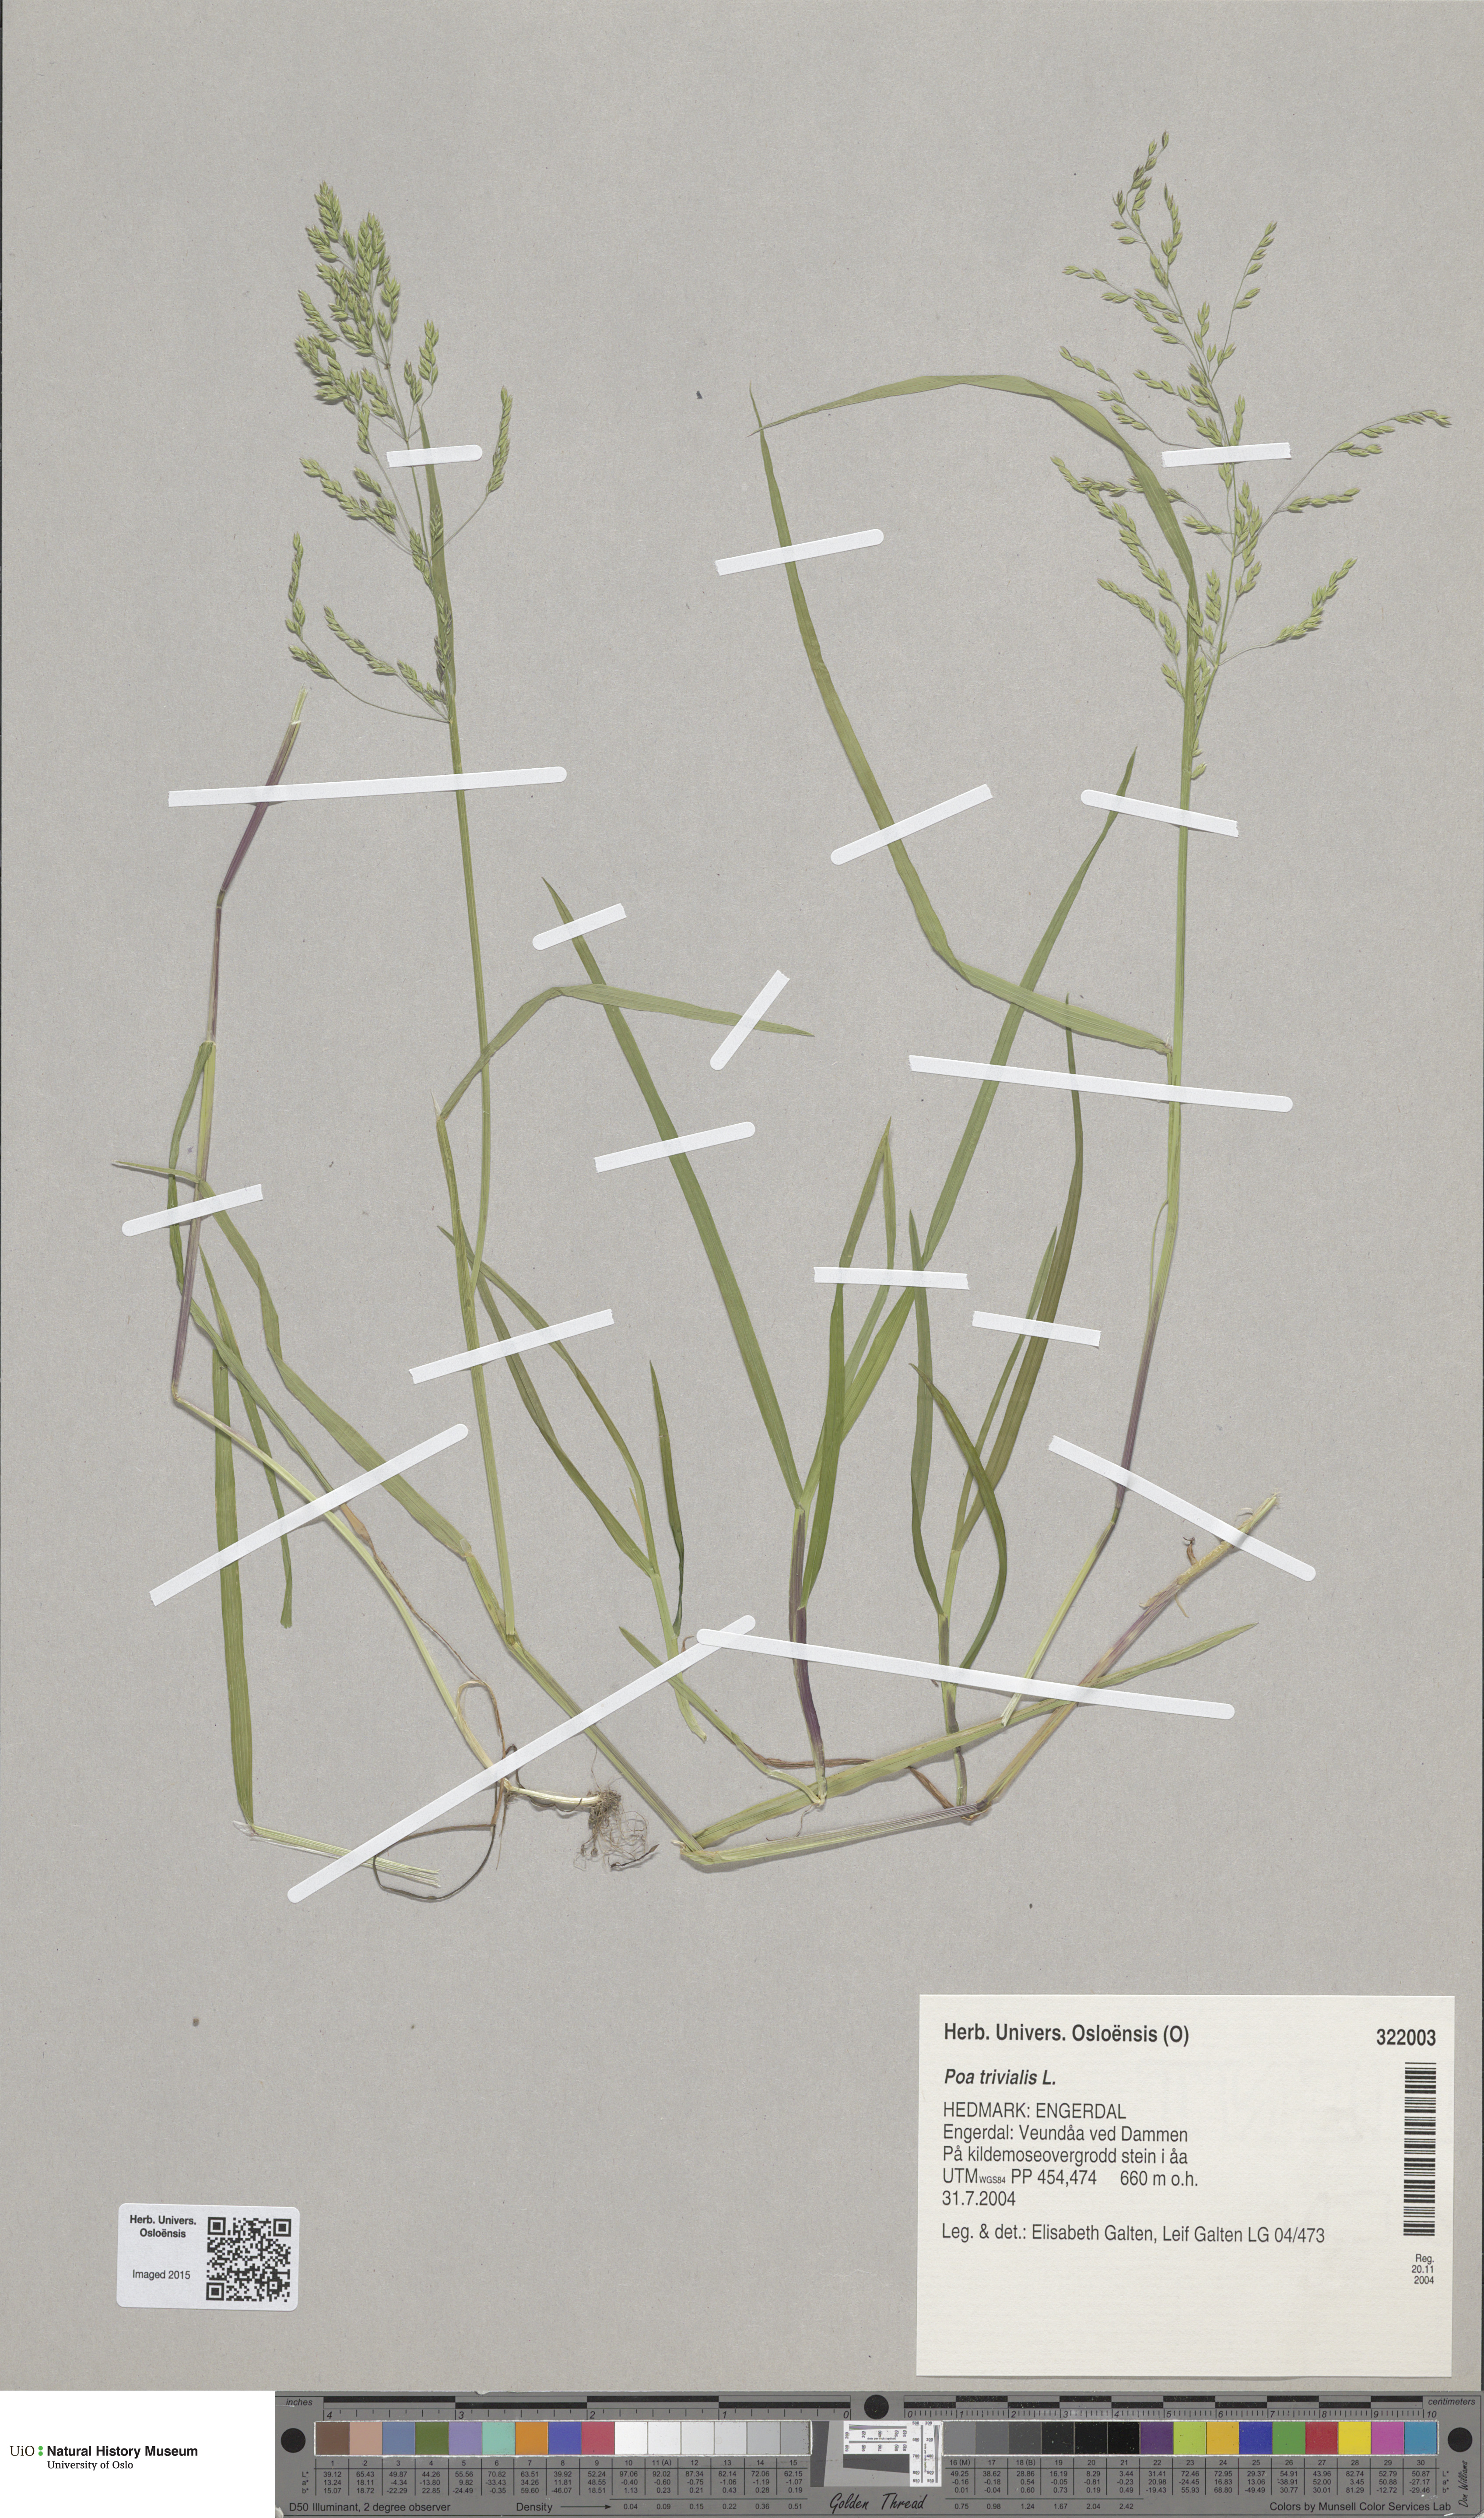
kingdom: Plantae
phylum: Tracheophyta
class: Liliopsida
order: Poales
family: Poaceae
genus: Poa
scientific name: Poa trivialis
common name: Rough bluegrass
